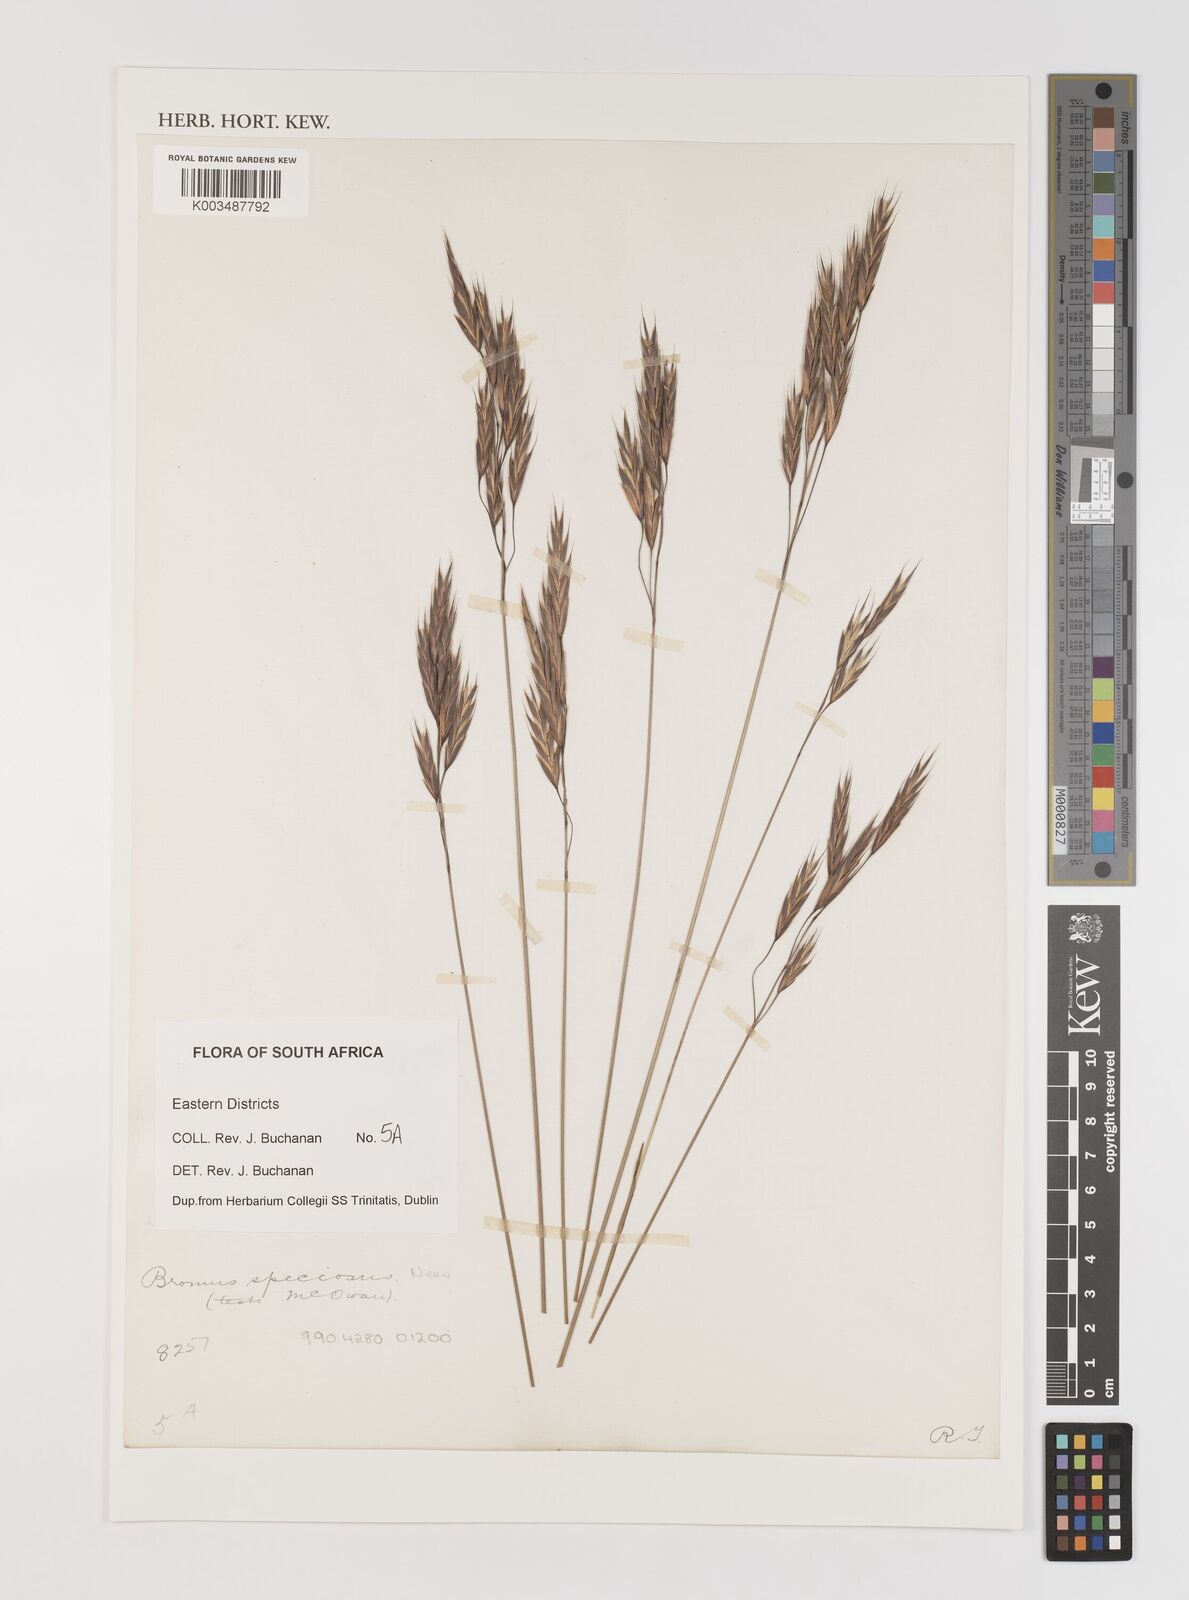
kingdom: Plantae
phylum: Tracheophyta
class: Liliopsida
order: Poales
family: Poaceae
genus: Bromus
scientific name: Bromus speciosus
